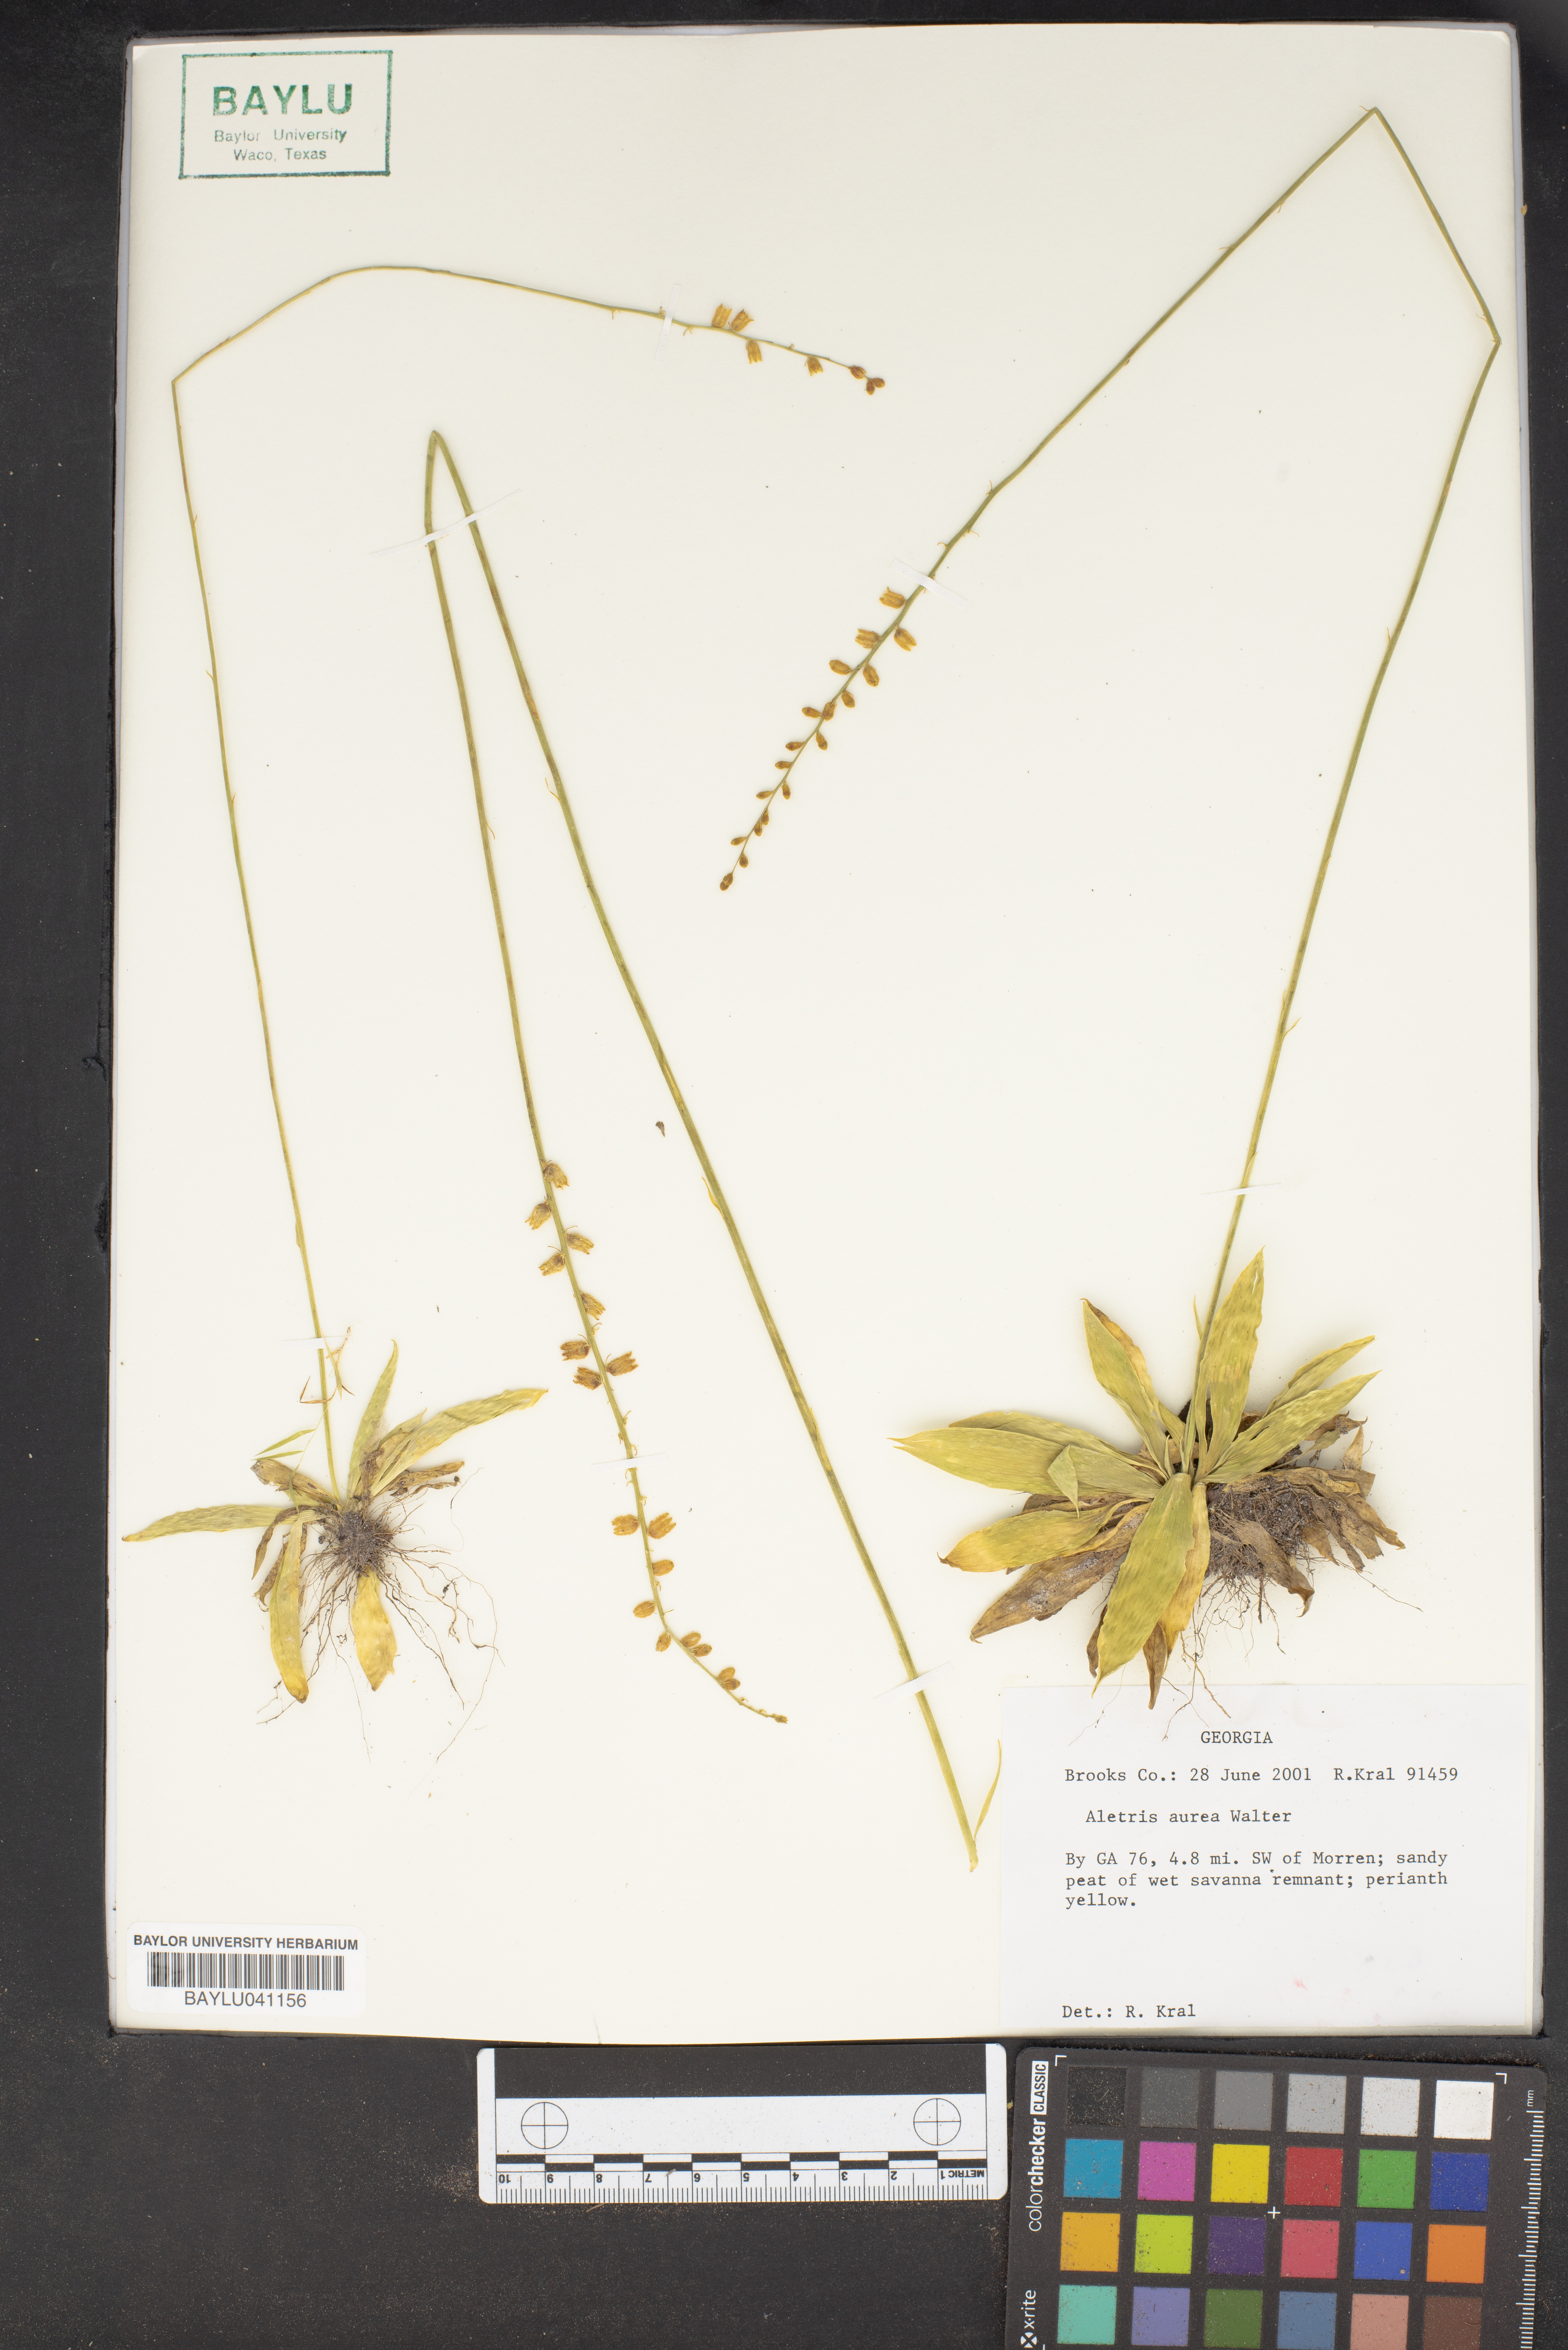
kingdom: Plantae
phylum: Tracheophyta
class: Liliopsida
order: Dioscoreales
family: Nartheciaceae
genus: Aletris
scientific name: Aletris aurea
